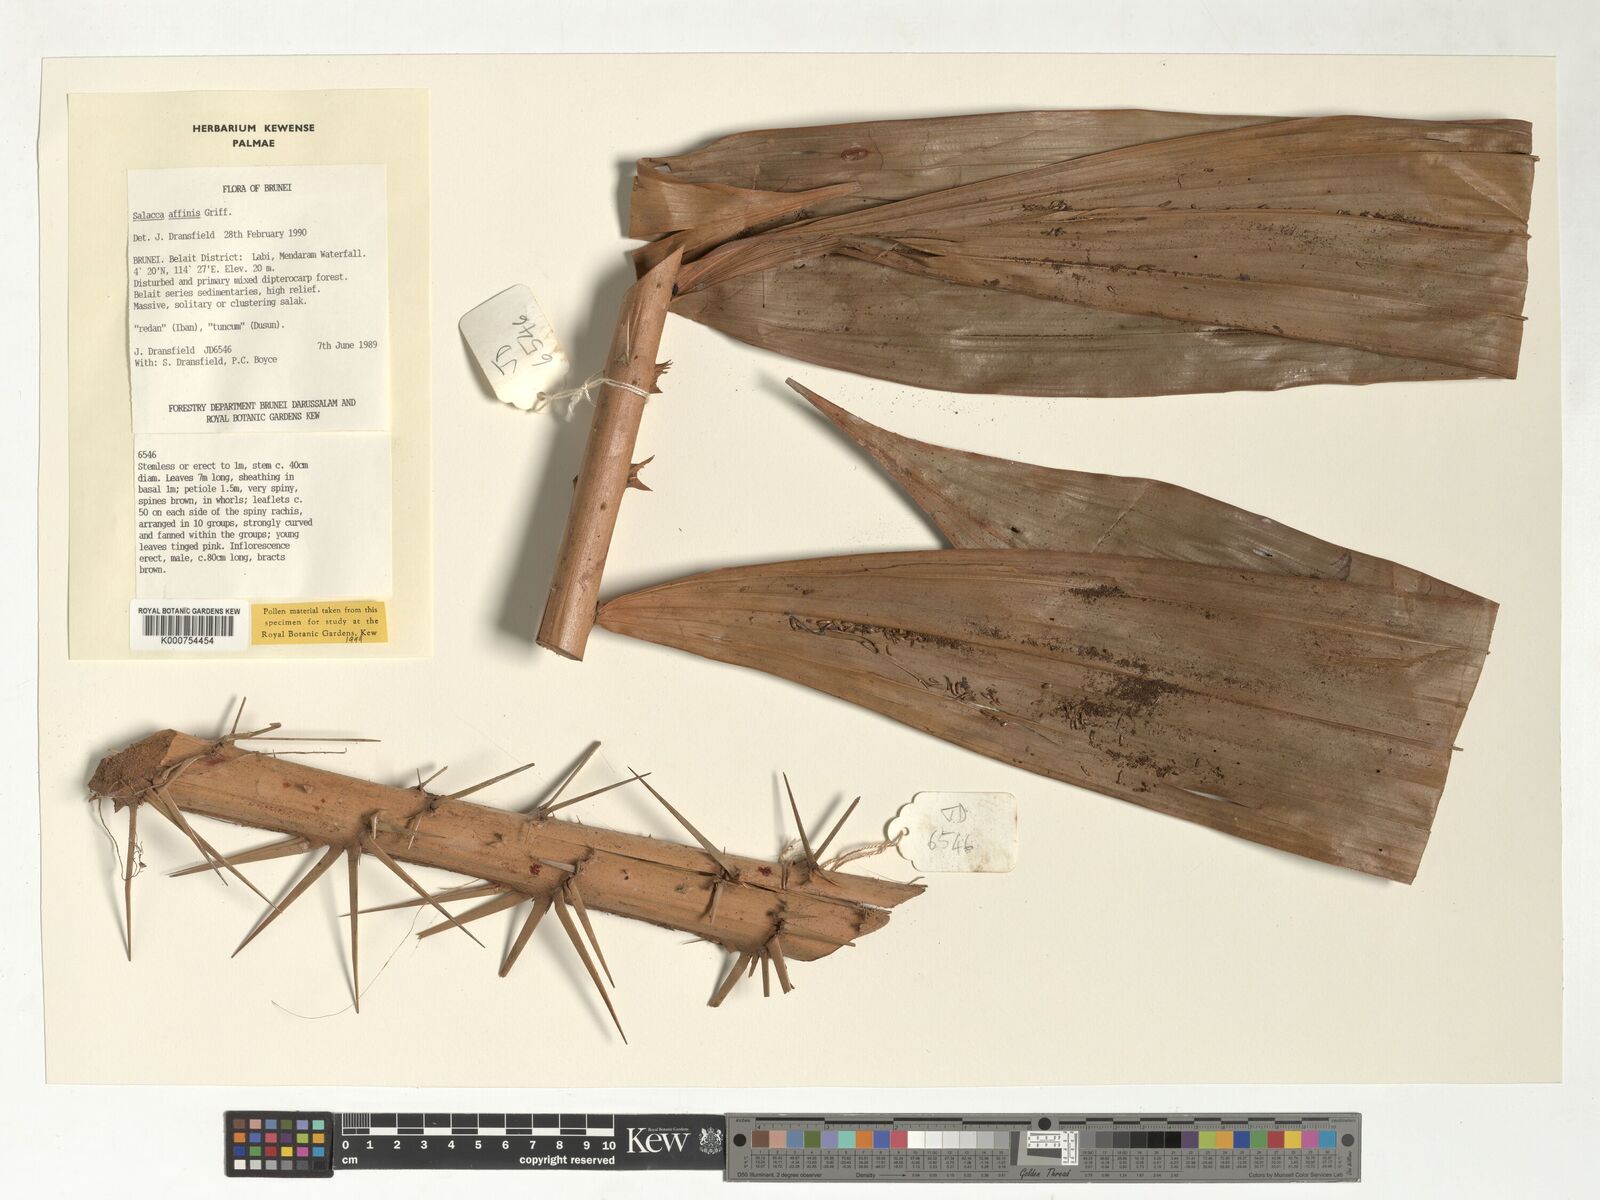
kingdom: Plantae
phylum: Tracheophyta
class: Liliopsida
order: Arecales
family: Arecaceae
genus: Salacca
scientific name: Salacca affinis
